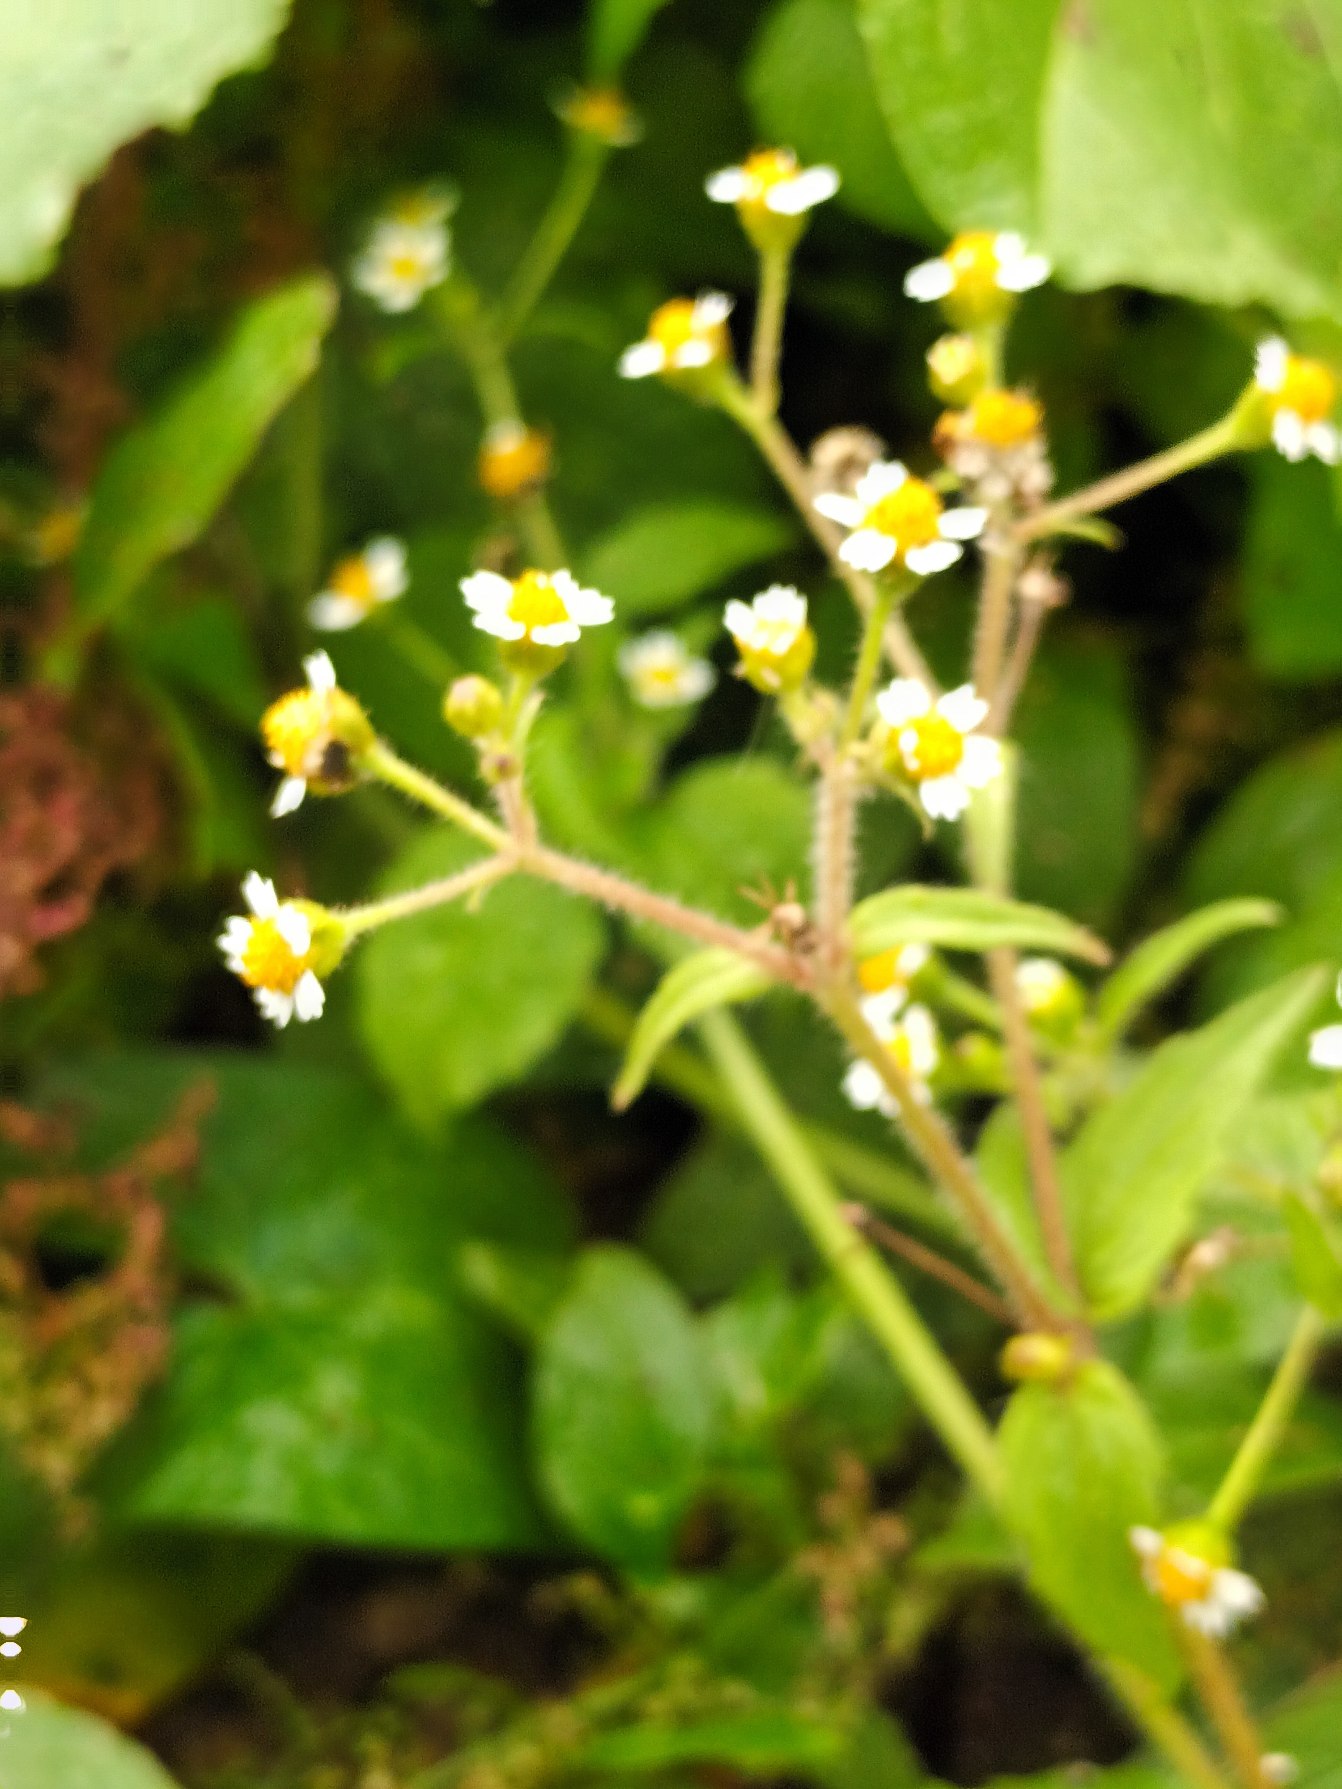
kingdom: Plantae
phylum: Tracheophyta
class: Magnoliopsida
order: Asterales
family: Asteraceae
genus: Galinsoga
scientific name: Galinsoga quadriradiata
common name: Kirtel-kortstråle
